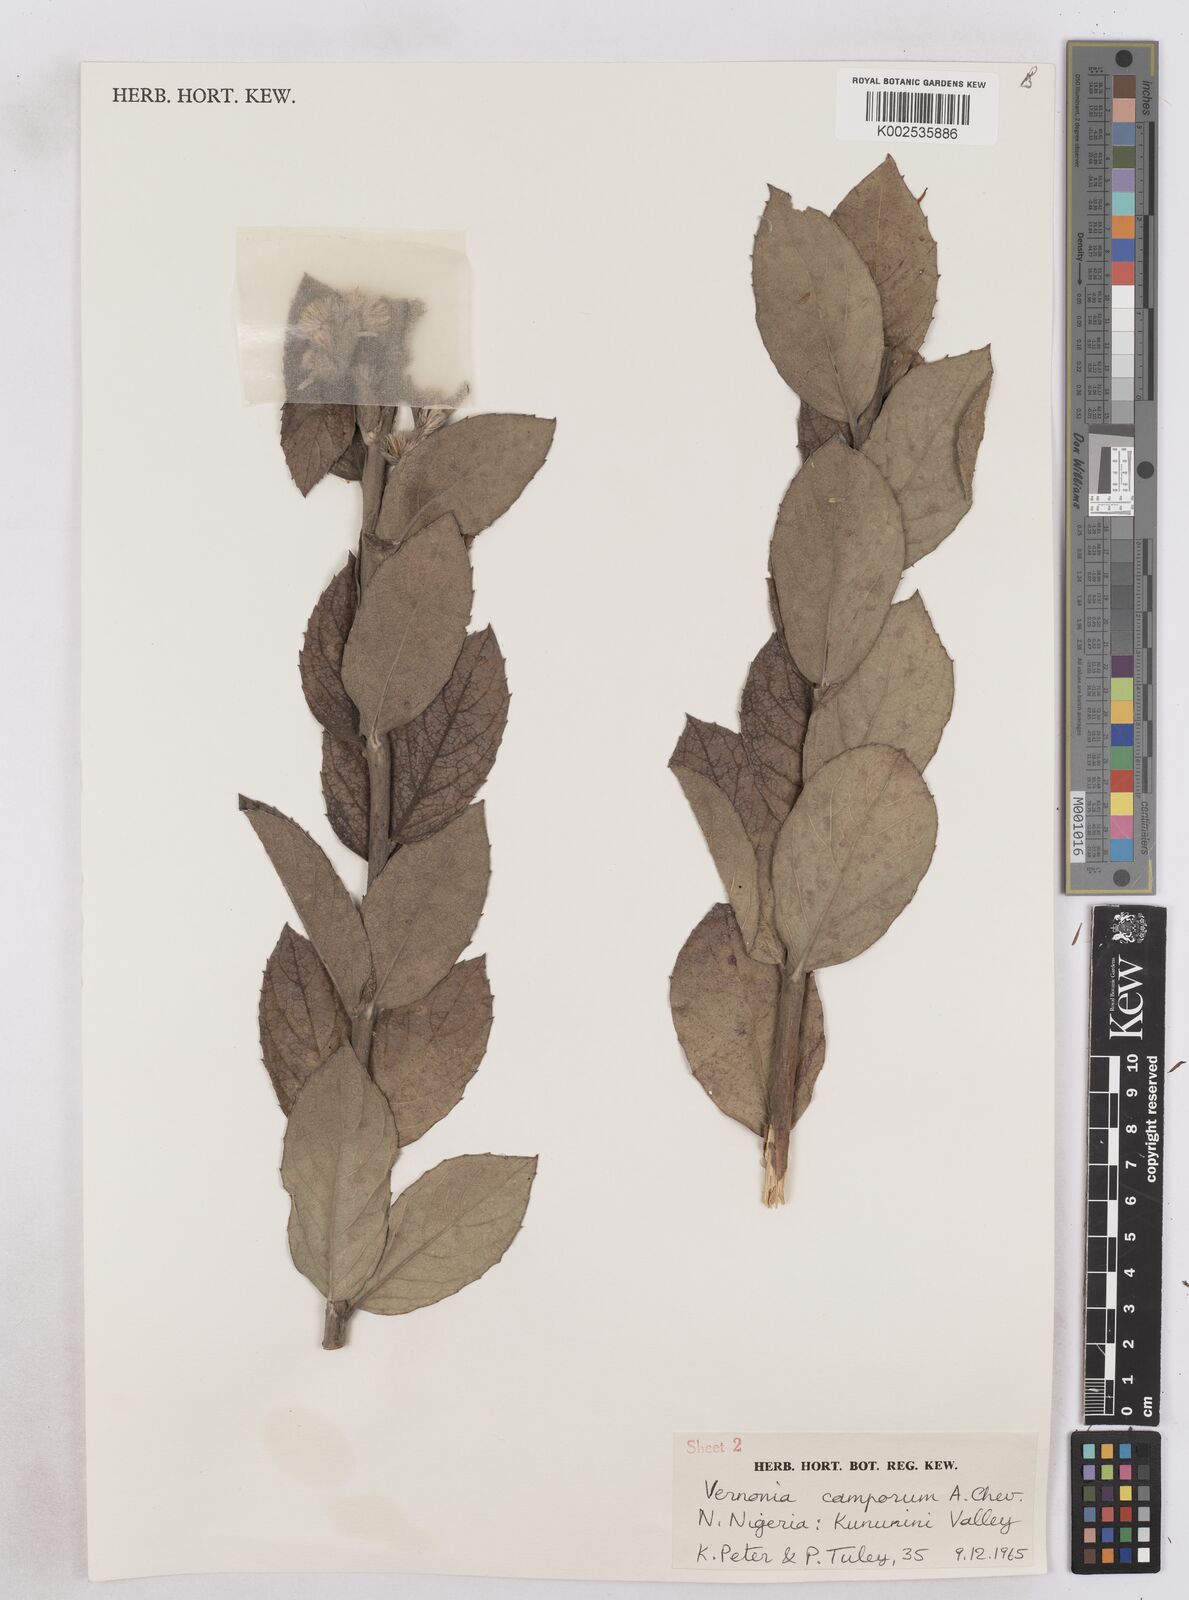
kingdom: Plantae
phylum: Tracheophyta
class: Magnoliopsida
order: Asterales
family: Asteraceae
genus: Vernoniastrum
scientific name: Vernoniastrum camporum
